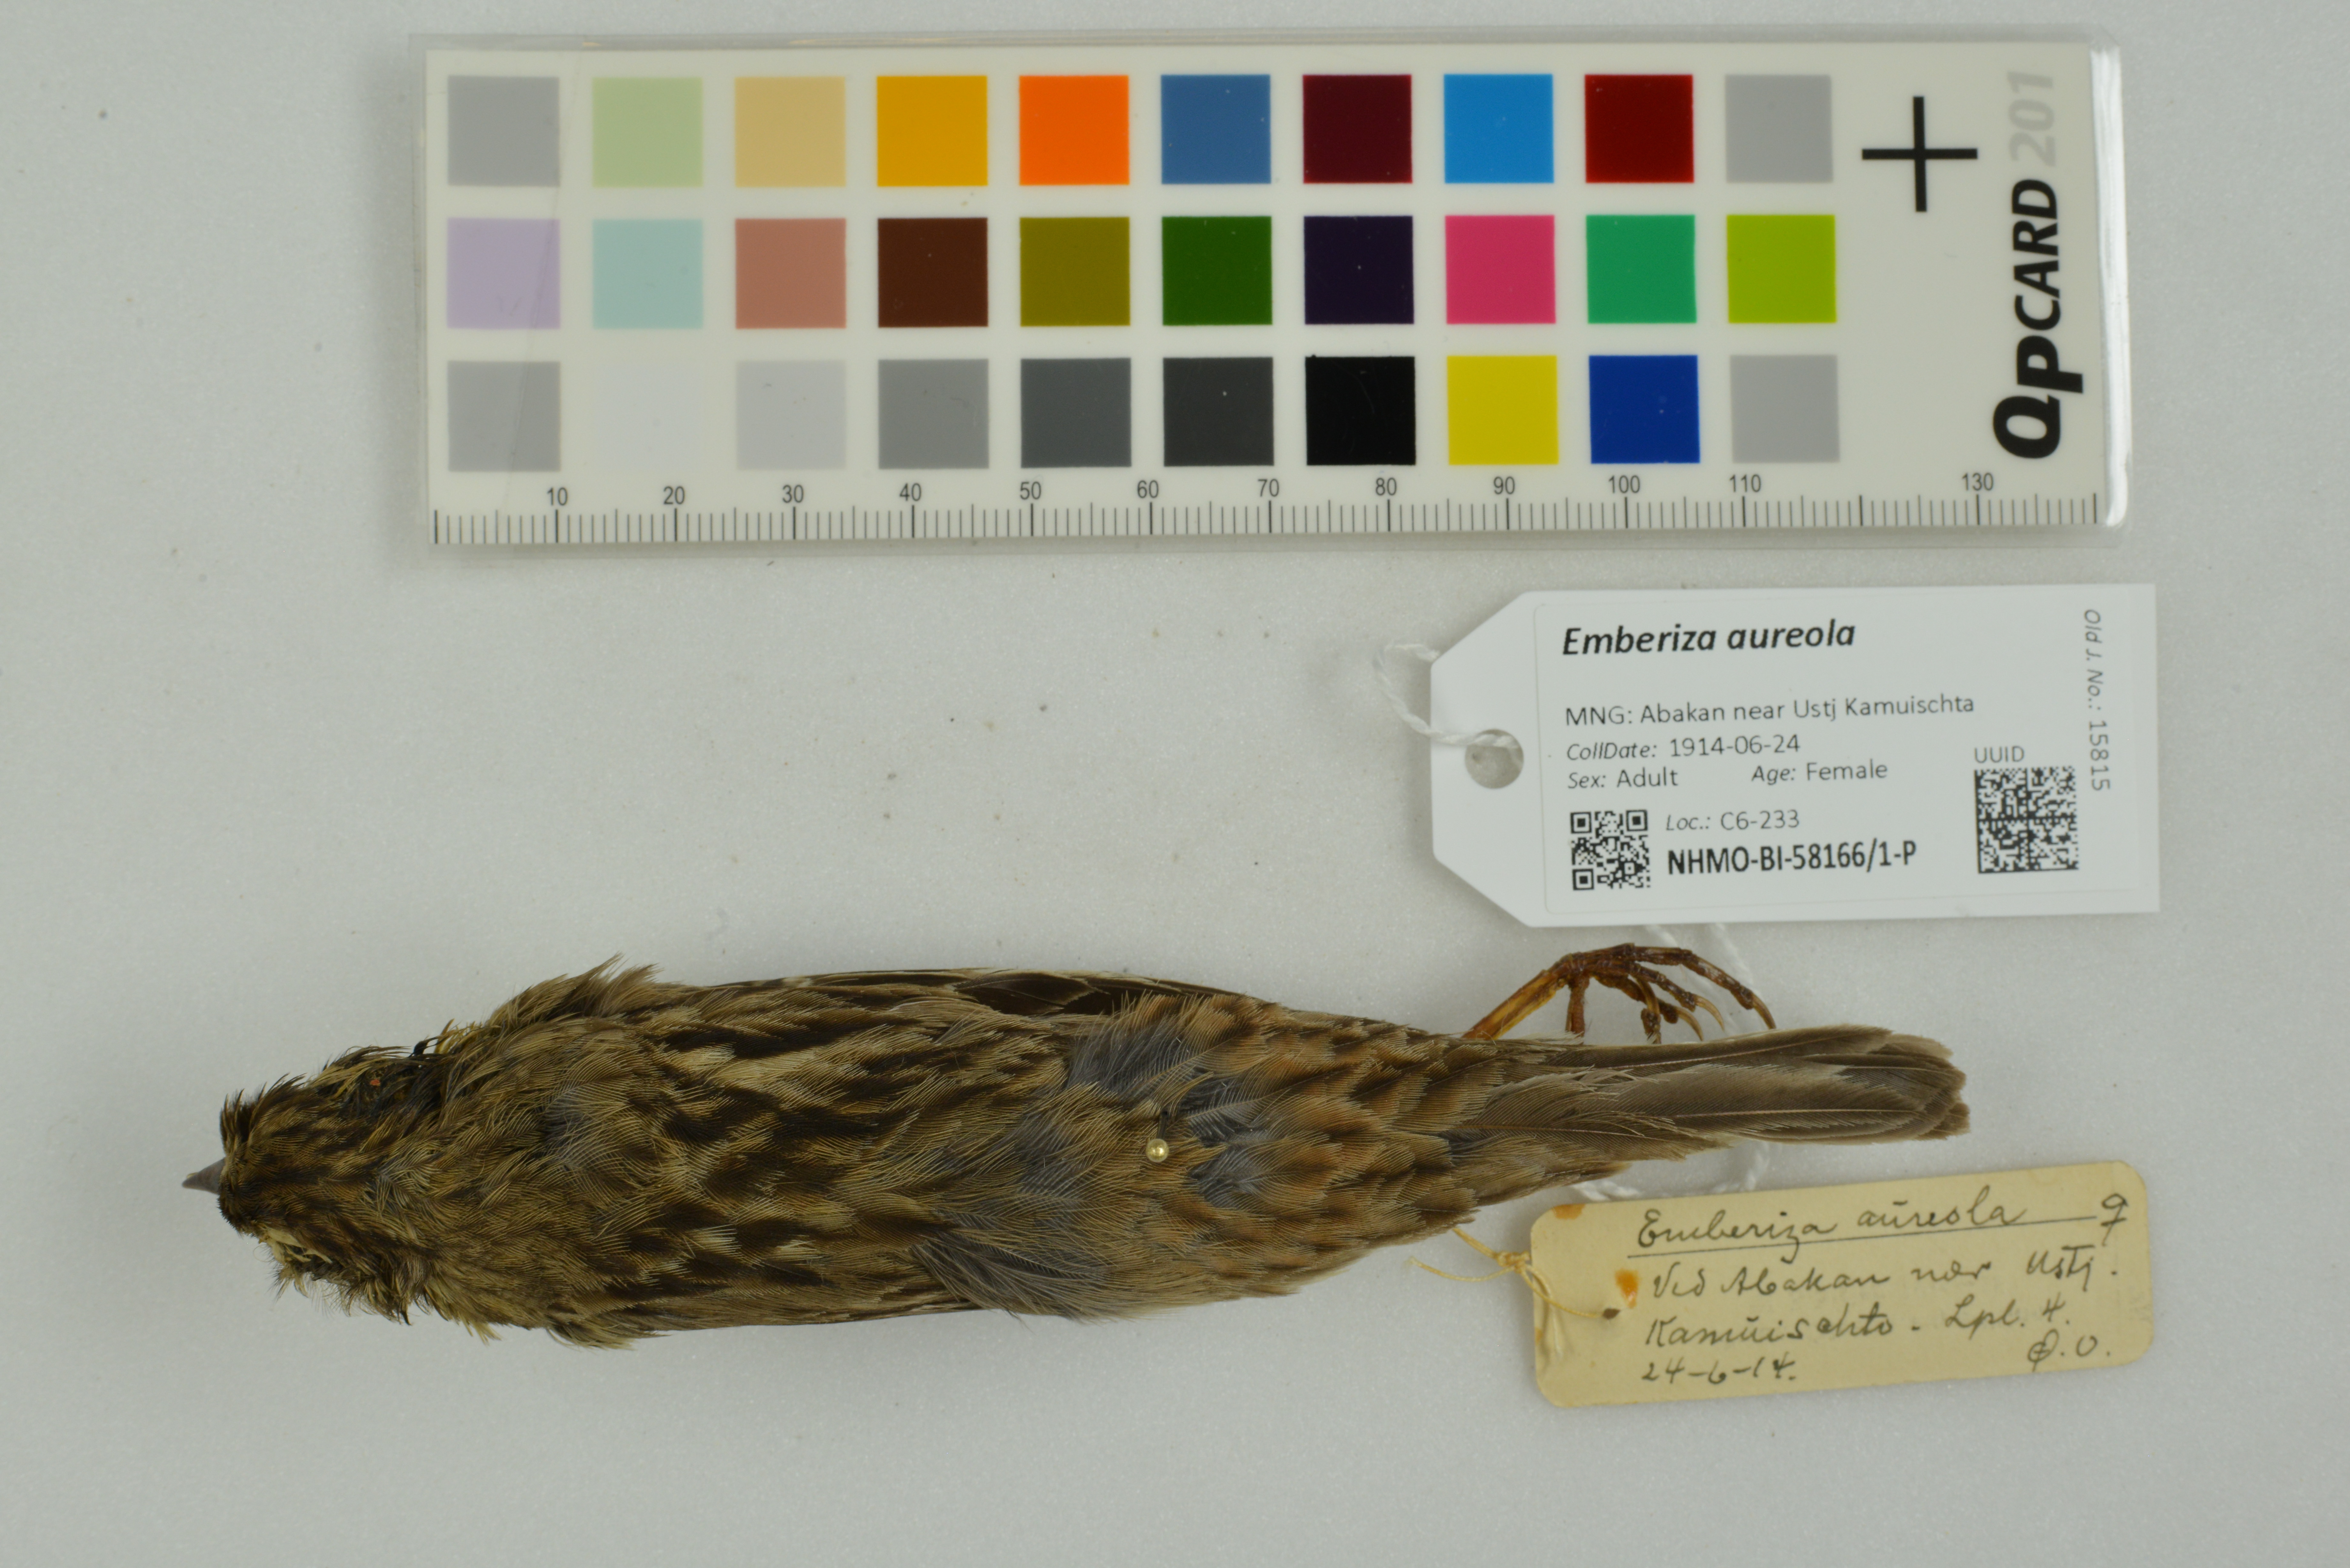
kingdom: Animalia
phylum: Chordata
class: Aves
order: Passeriformes
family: Emberizidae
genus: Emberiza
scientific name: Emberiza aureola
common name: Yellow-breasted bunting
